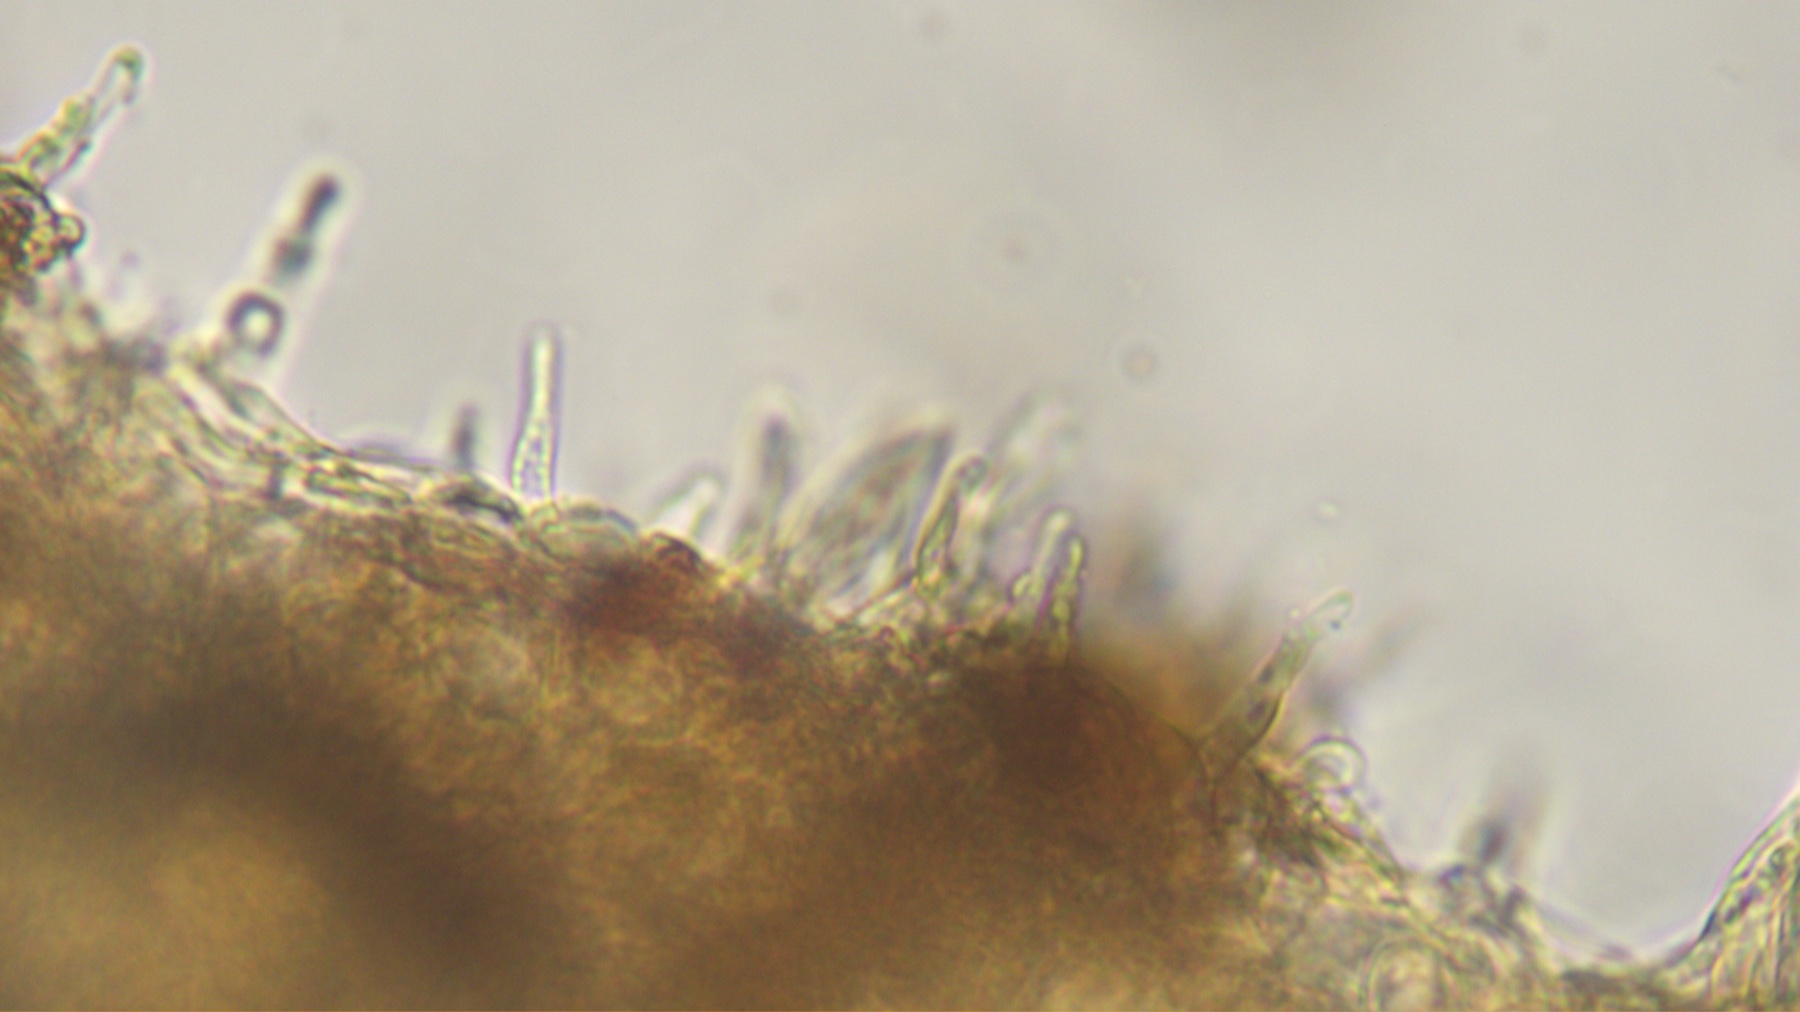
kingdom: Fungi
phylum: Basidiomycota
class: Agaricomycetes
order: Agaricales
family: Hymenogastraceae
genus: Naucoria
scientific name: Naucoria scolecina
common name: mørk elle-knaphat
